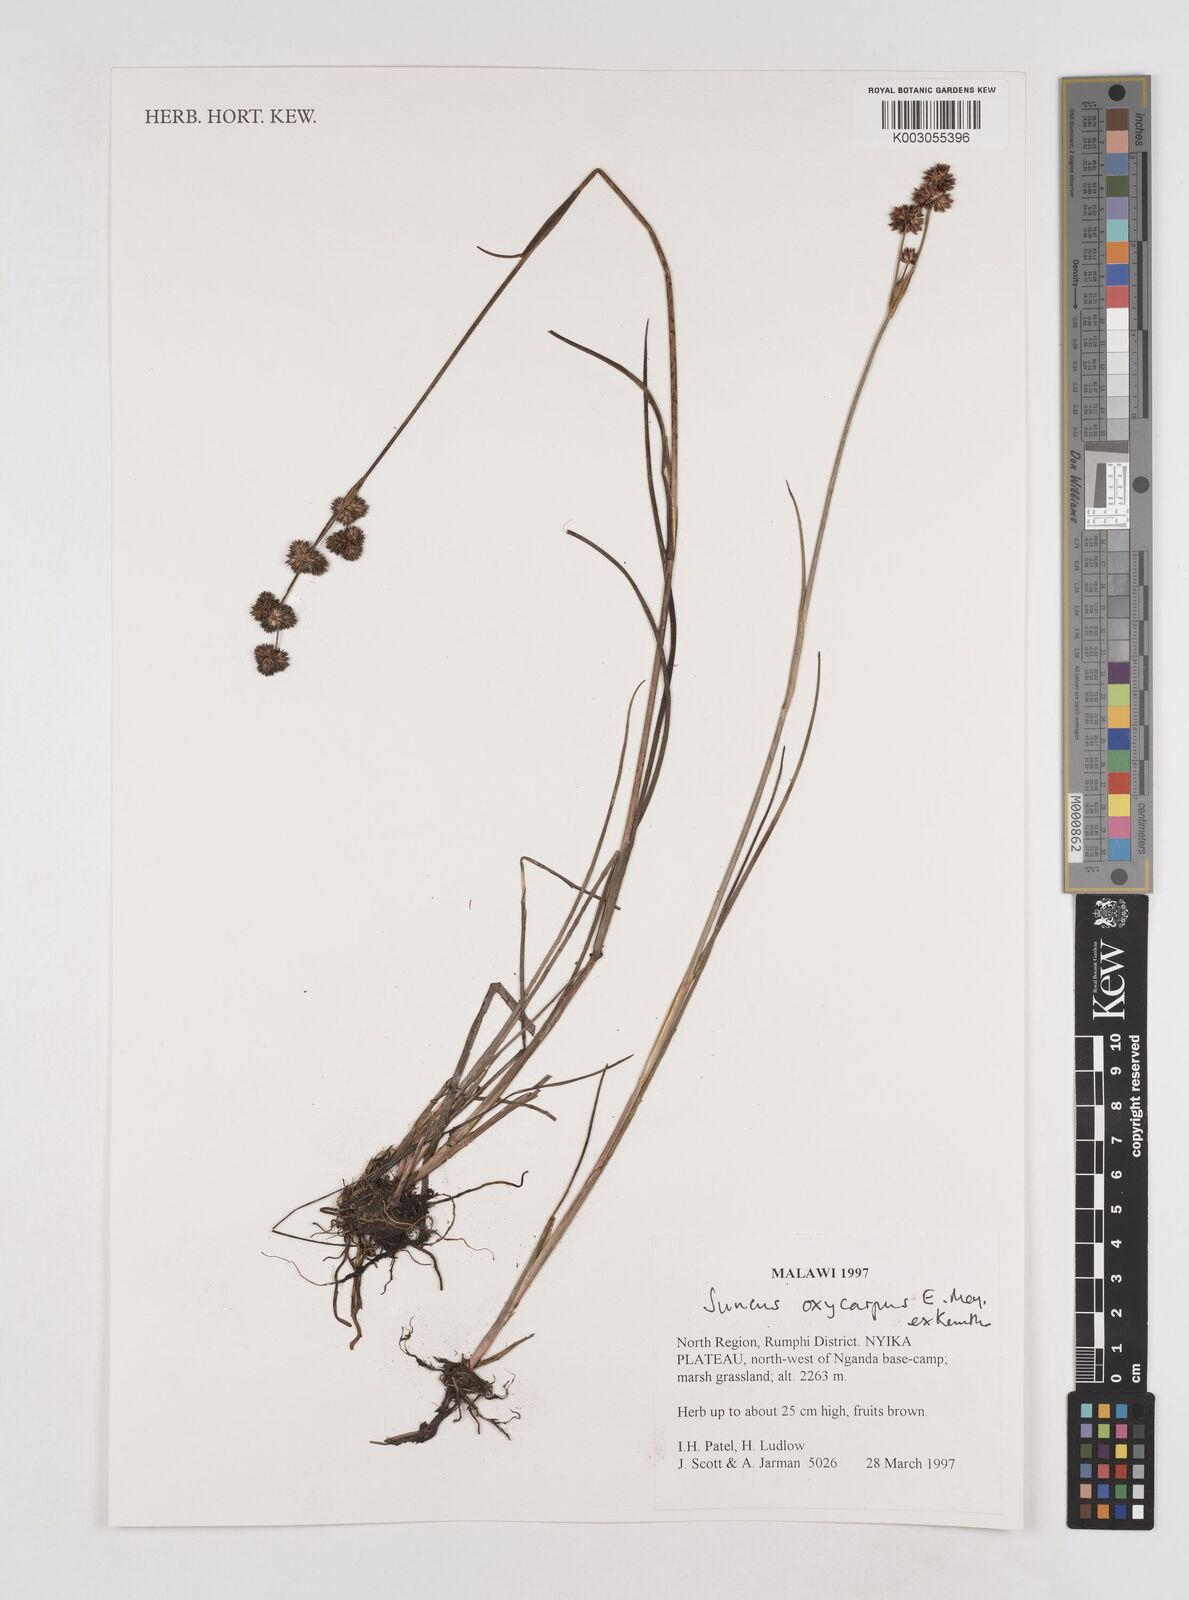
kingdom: Plantae
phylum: Tracheophyta
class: Liliopsida
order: Poales
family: Juncaceae
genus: Juncus
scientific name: Juncus oxycarpus
